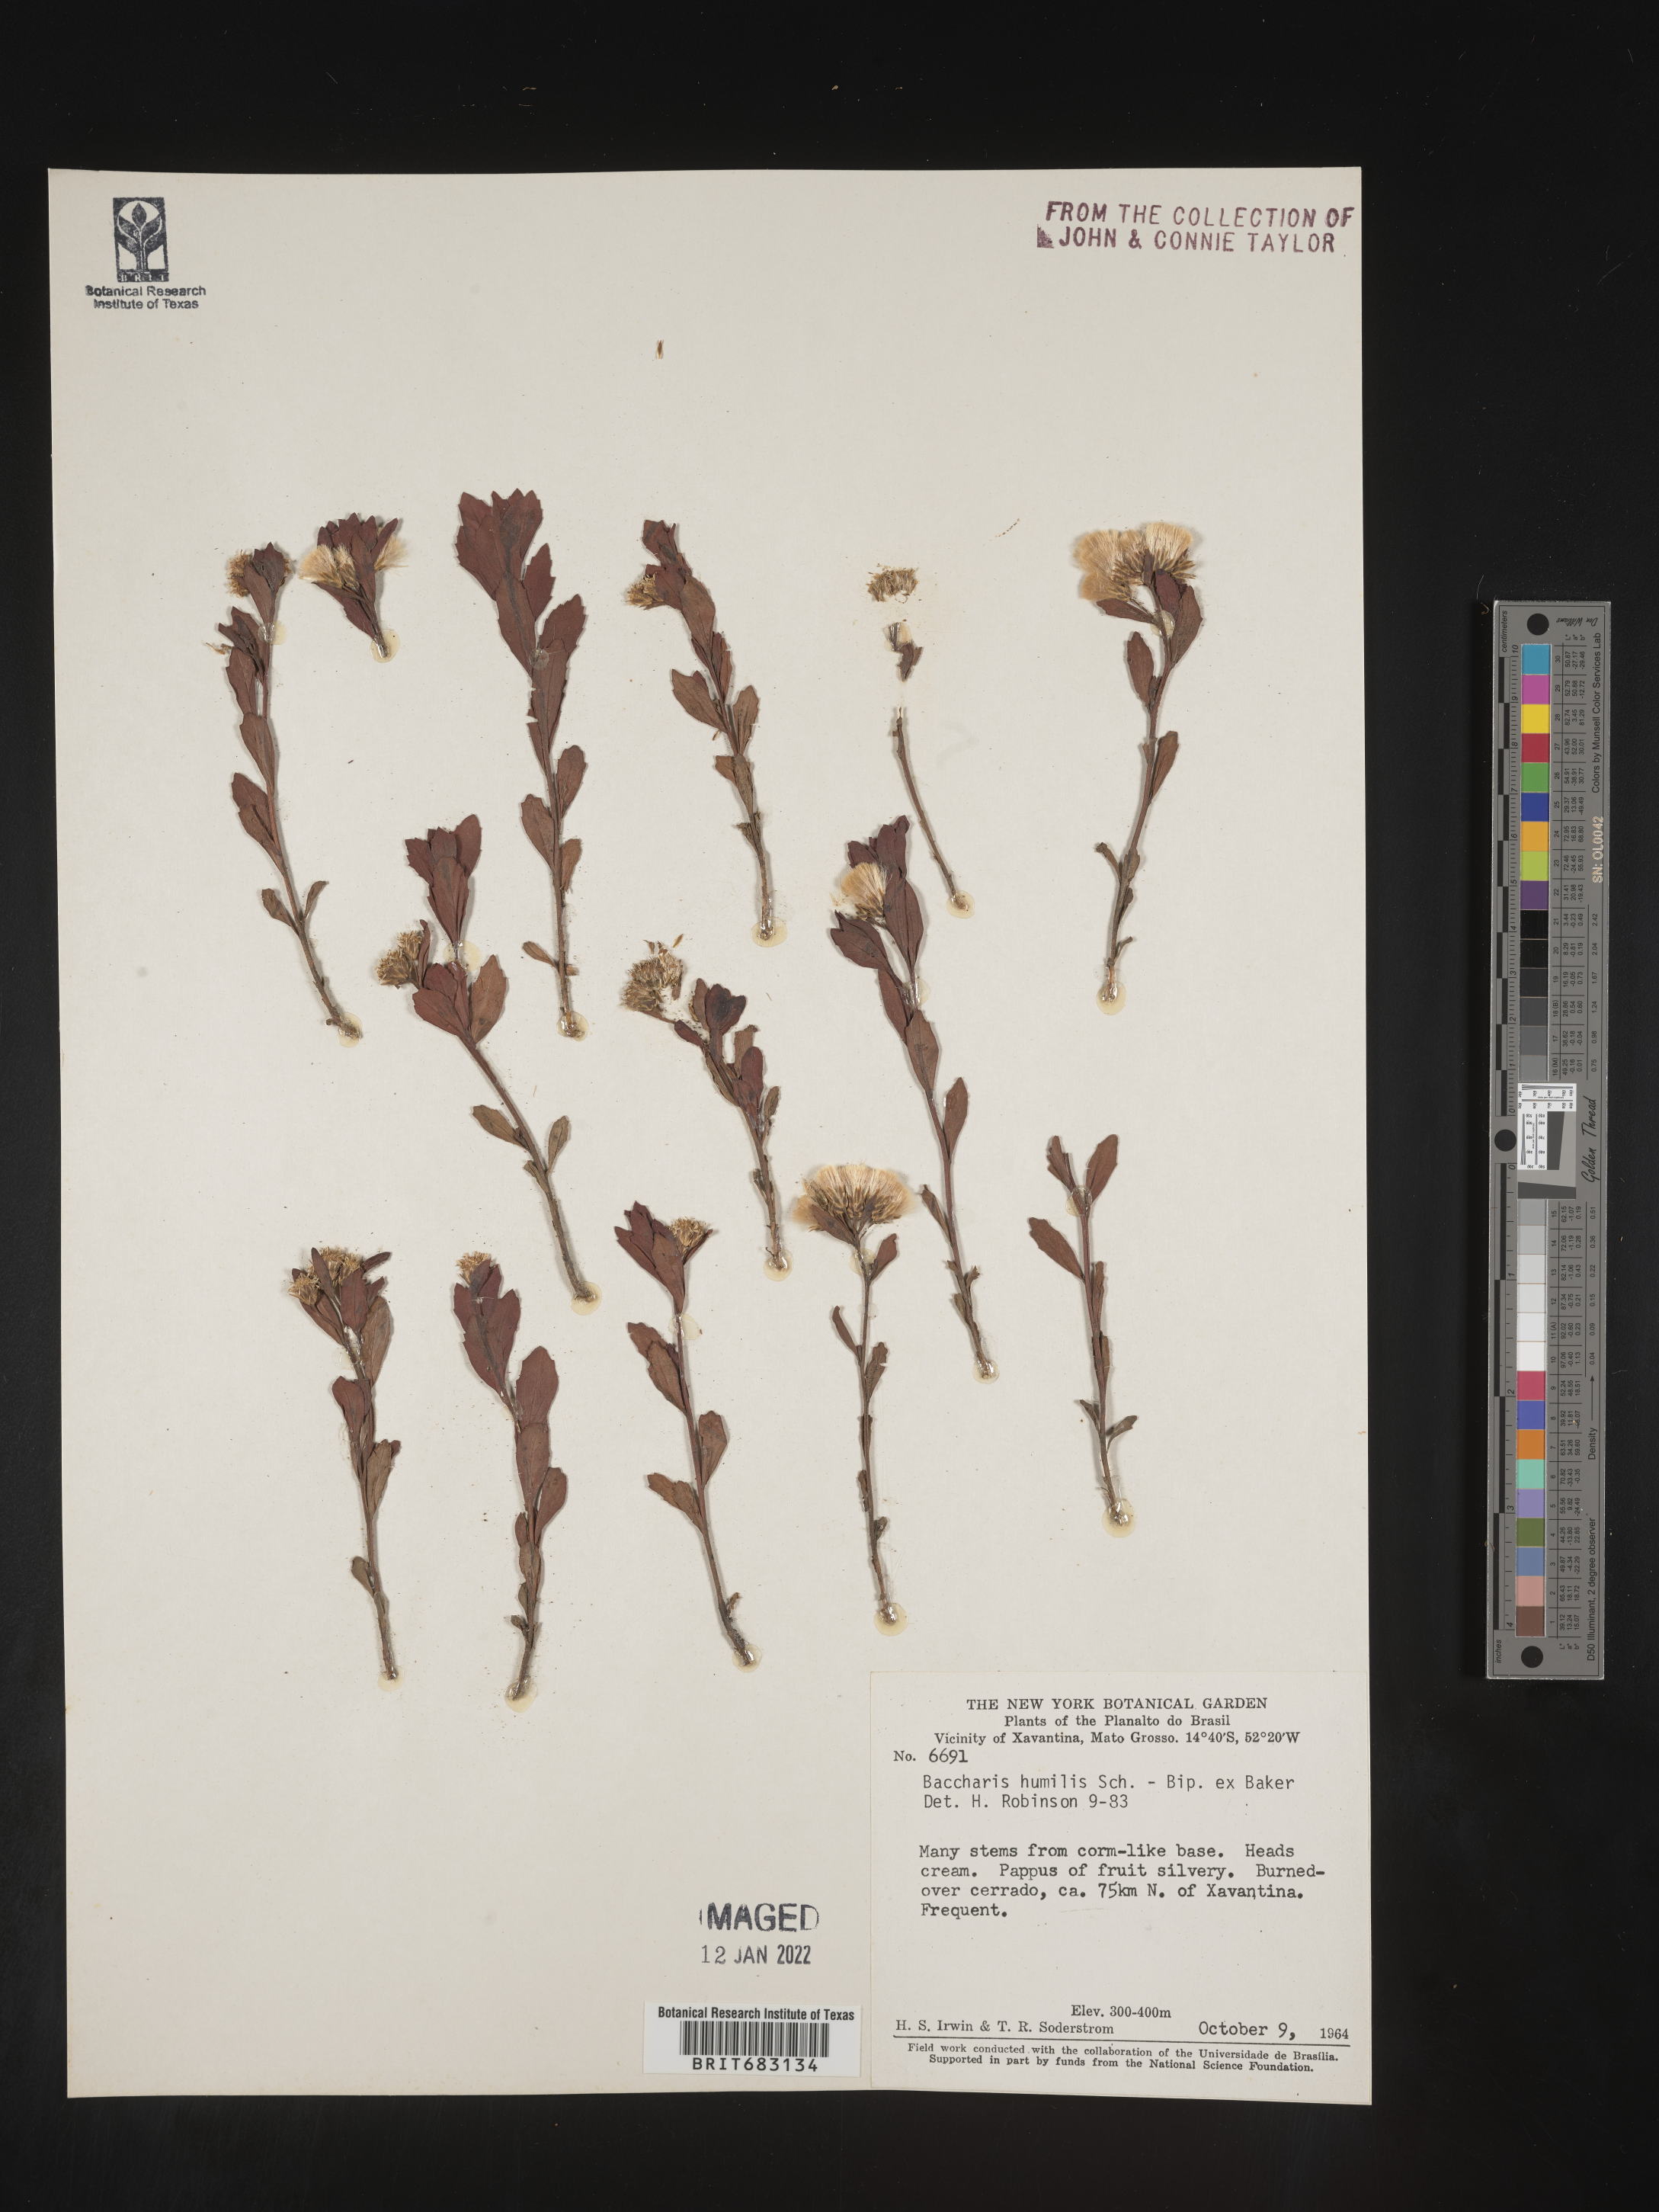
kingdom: Plantae
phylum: Tracheophyta
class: Magnoliopsida
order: Asterales
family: Asteraceae
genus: Baccharis
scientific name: Baccharis
